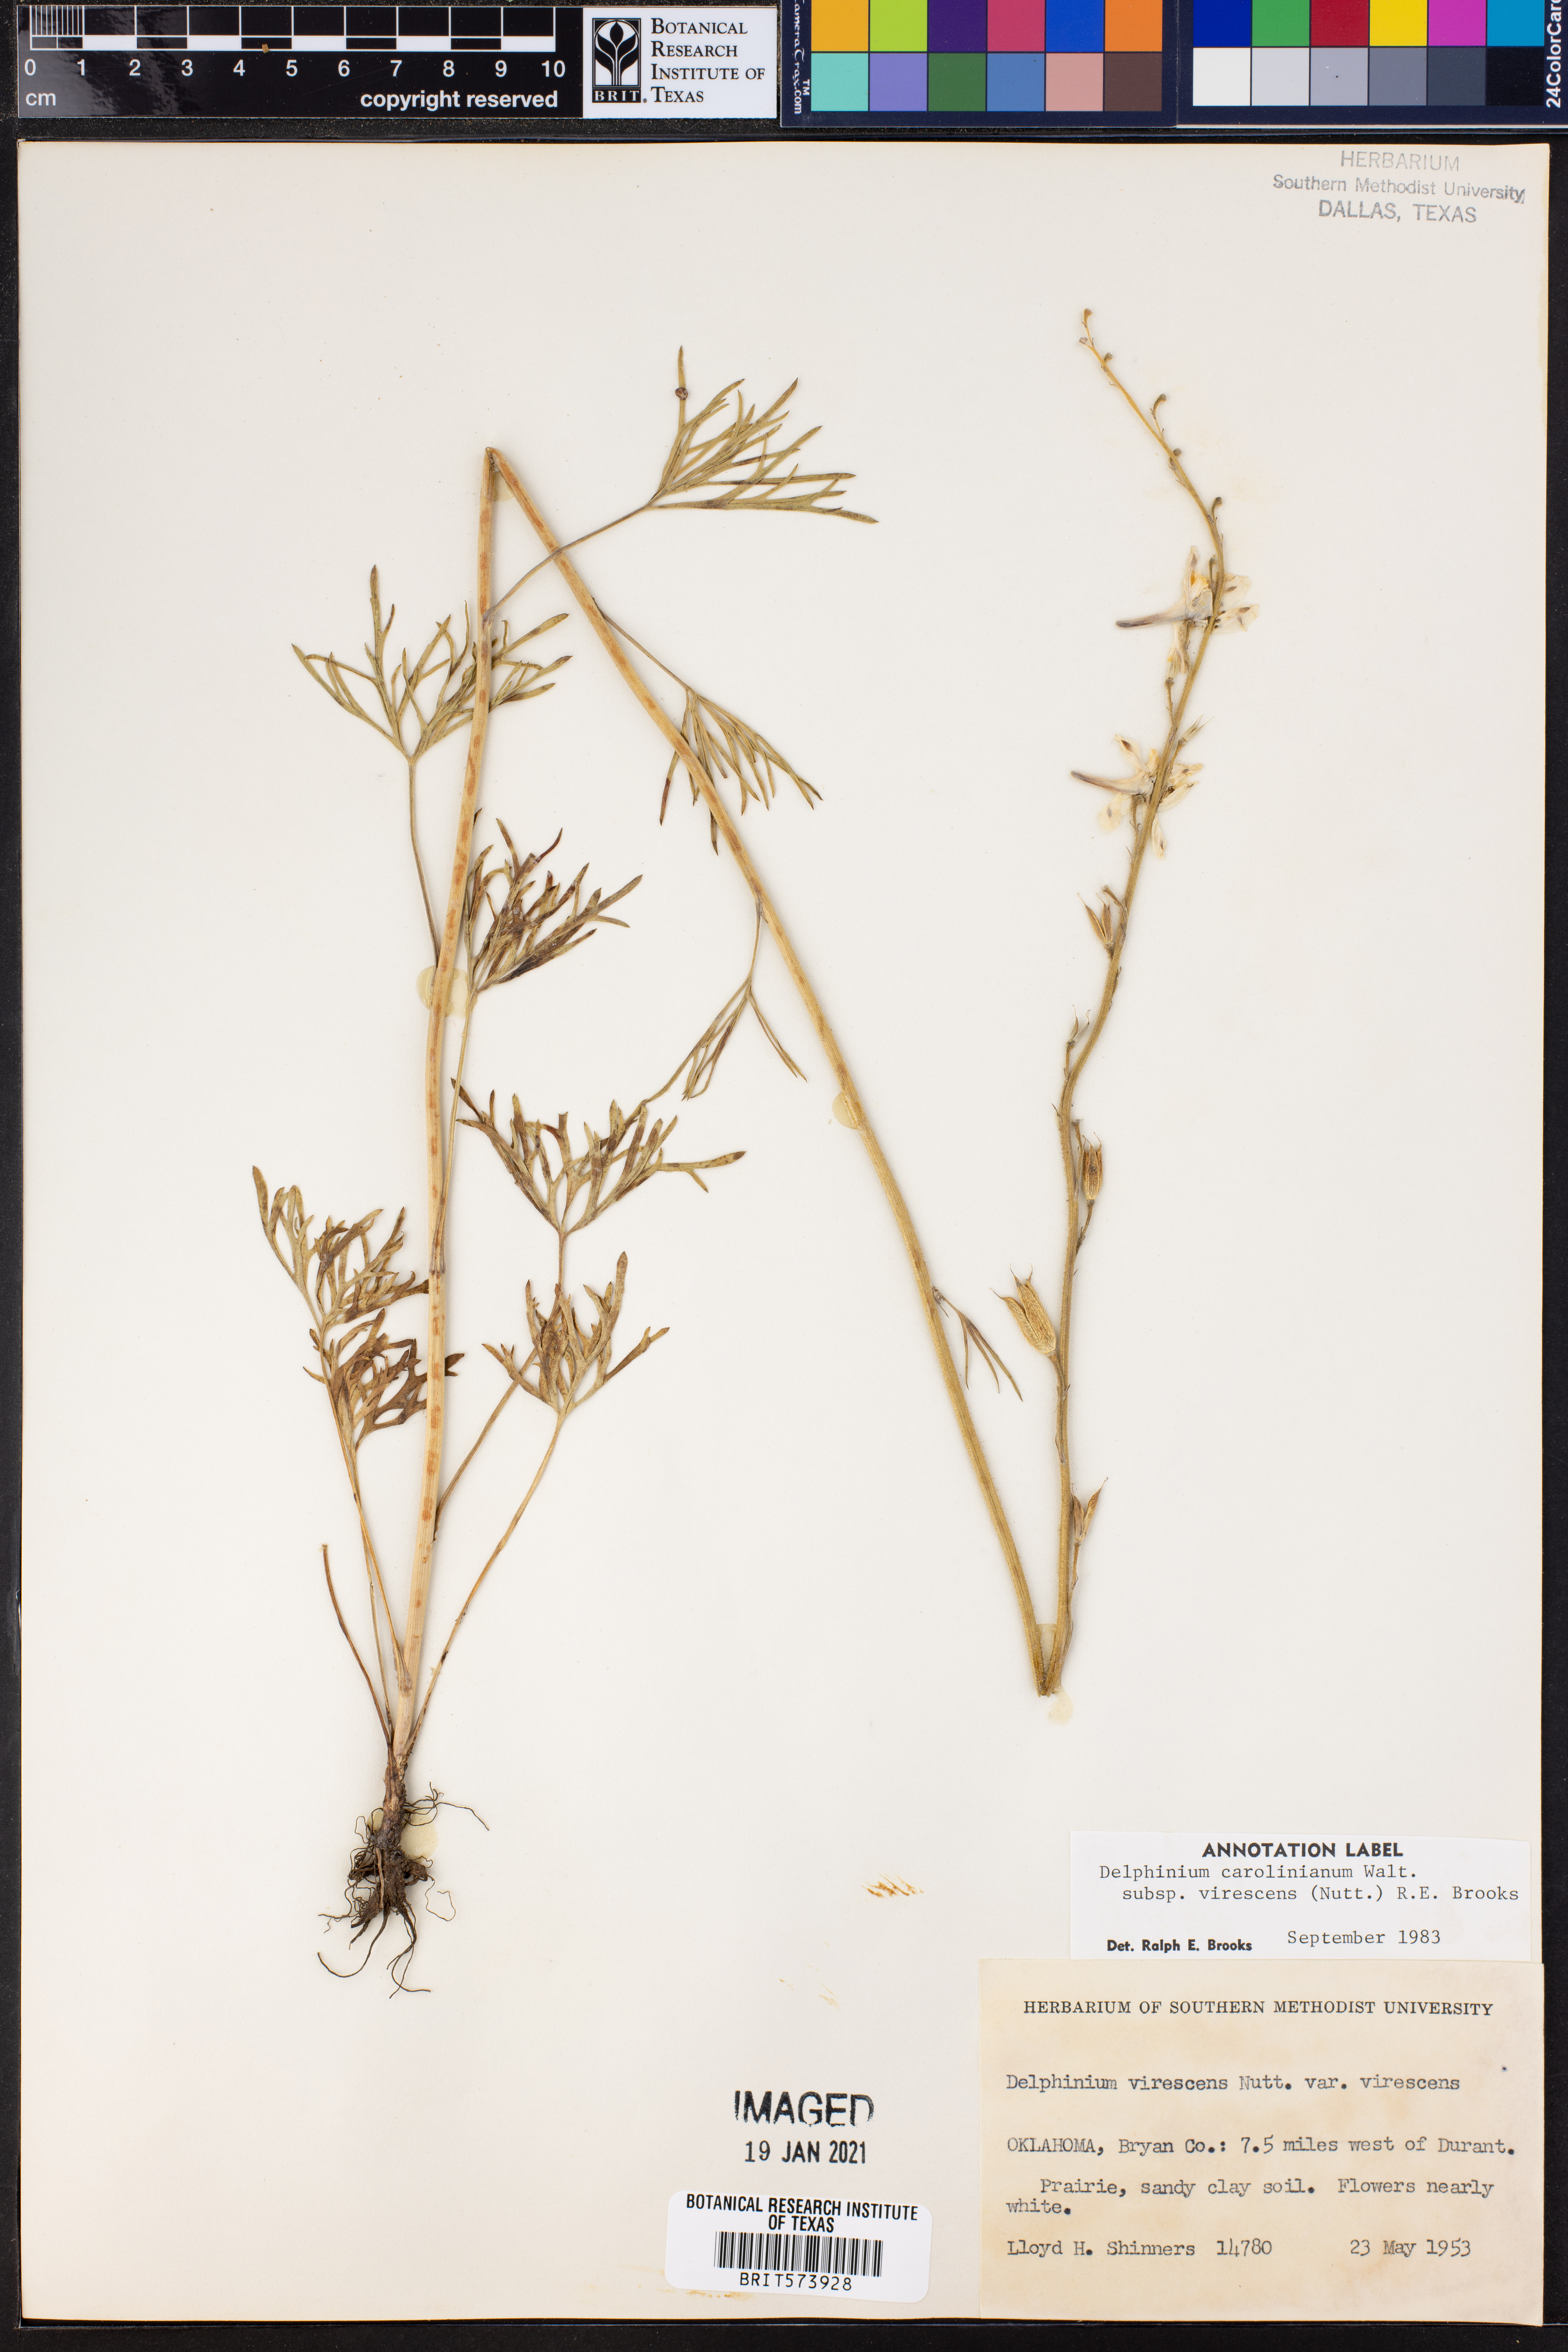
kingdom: Plantae
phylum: Tracheophyta
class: Magnoliopsida
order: Ranunculales
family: Ranunculaceae
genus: Delphinium
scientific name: Delphinium carolinianum
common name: Carolina larkspur
